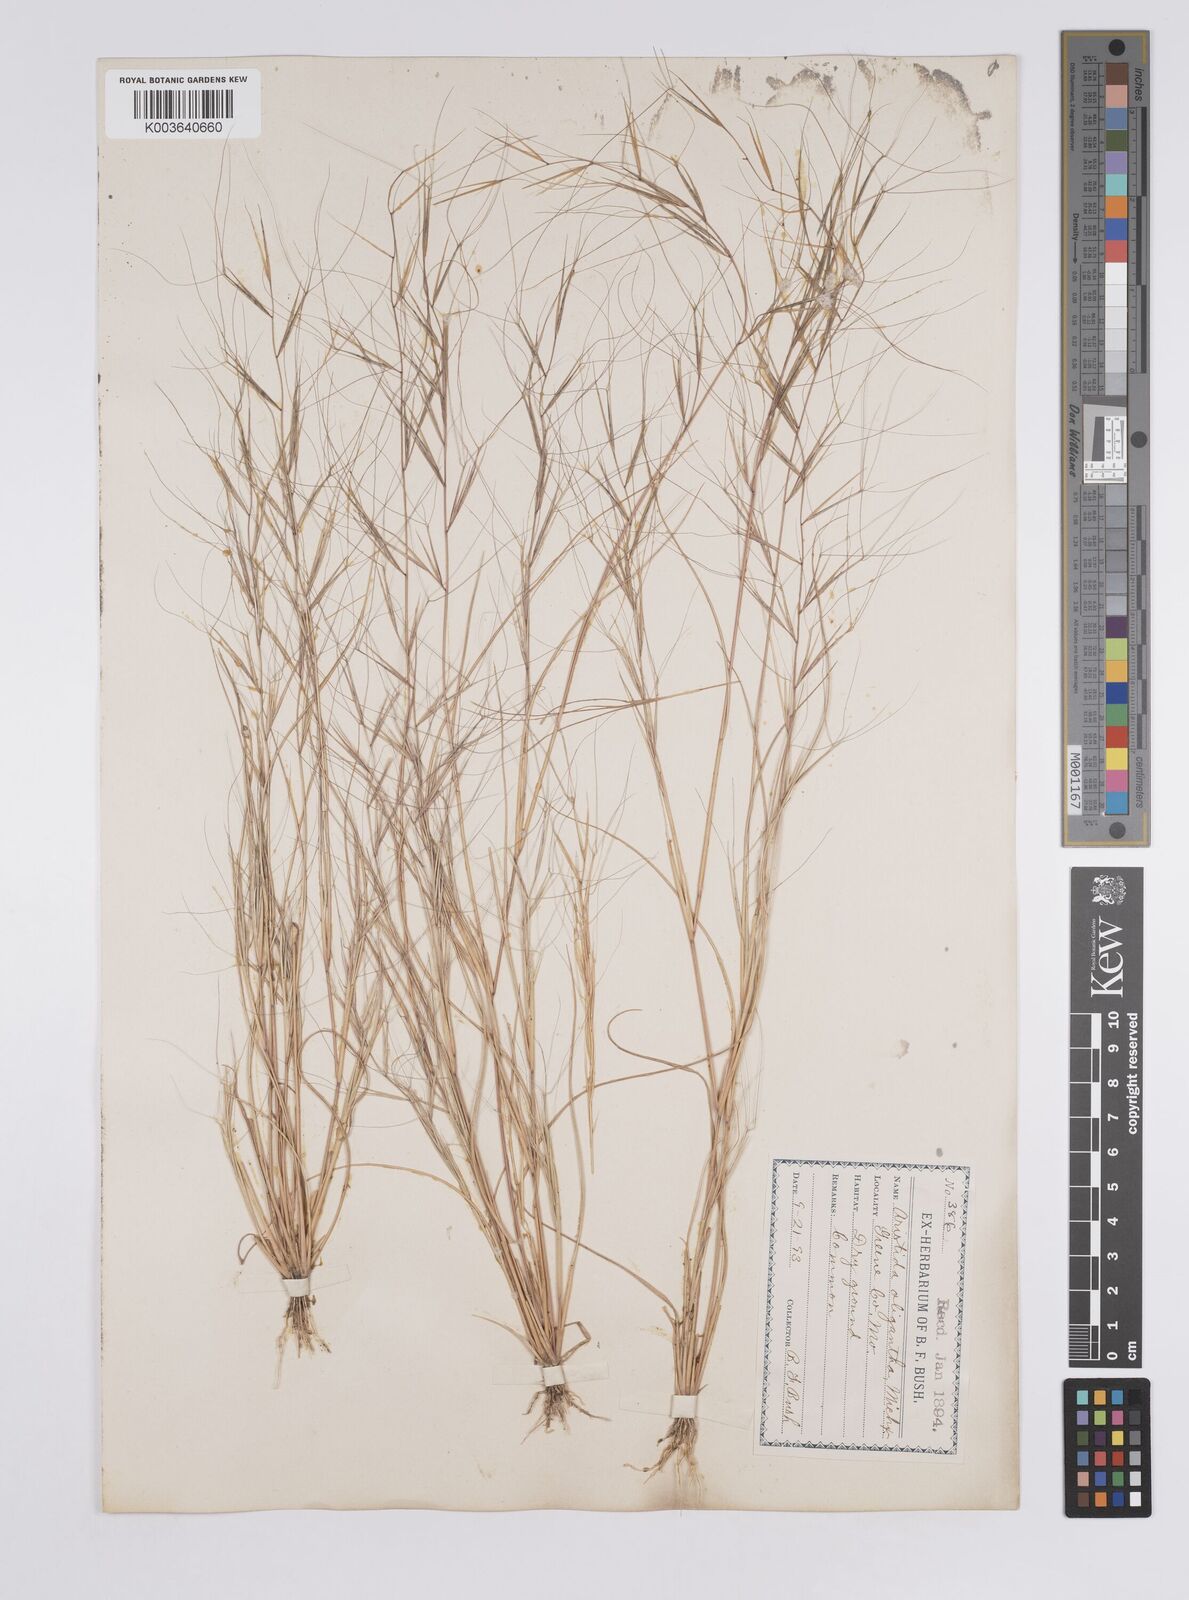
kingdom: Plantae
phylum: Tracheophyta
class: Liliopsida
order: Poales
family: Poaceae
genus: Aristida
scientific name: Aristida oligantha
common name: Few-flowered aristida
